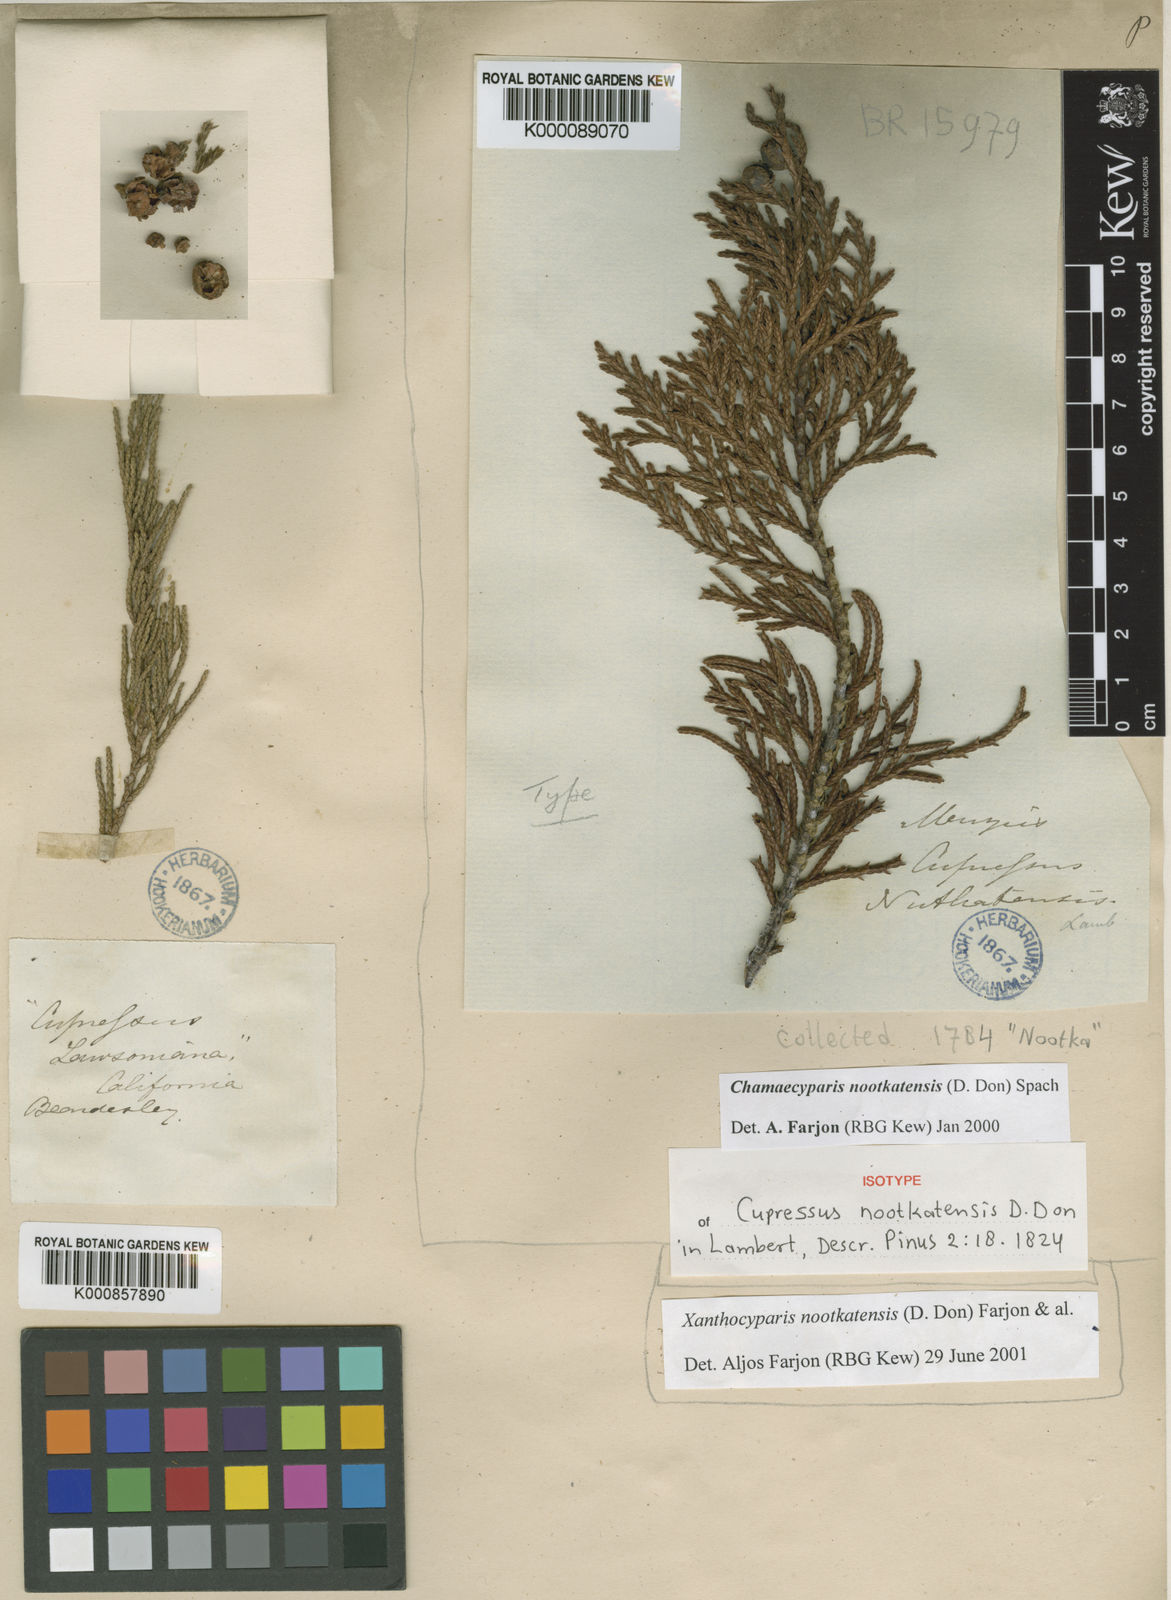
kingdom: Plantae
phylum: Tracheophyta
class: Pinopsida
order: Pinales
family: Cupressaceae
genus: Xanthocyparis
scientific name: Xanthocyparis nootkatensis
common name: Nootka cypress
